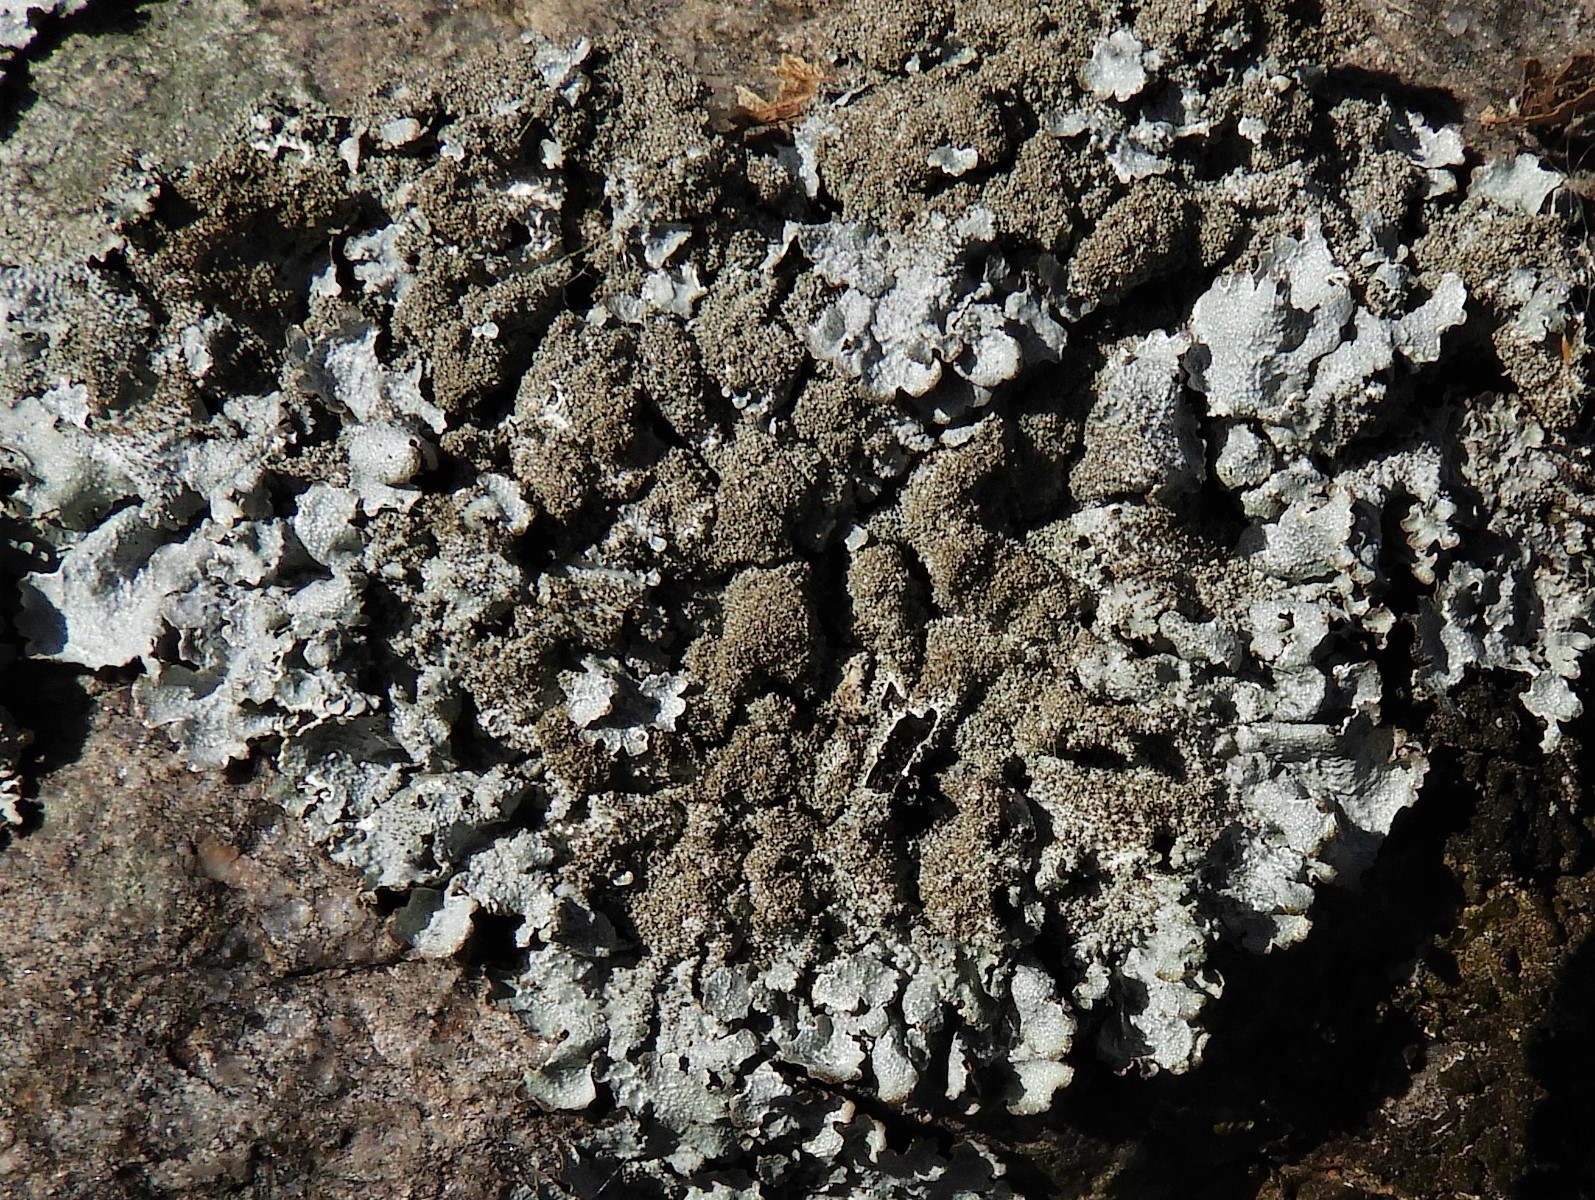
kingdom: Fungi
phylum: Ascomycota
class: Lecanoromycetes
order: Lecanorales
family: Parmeliaceae
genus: Parmelia
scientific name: Parmelia saxatilis
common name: farve-skållav
